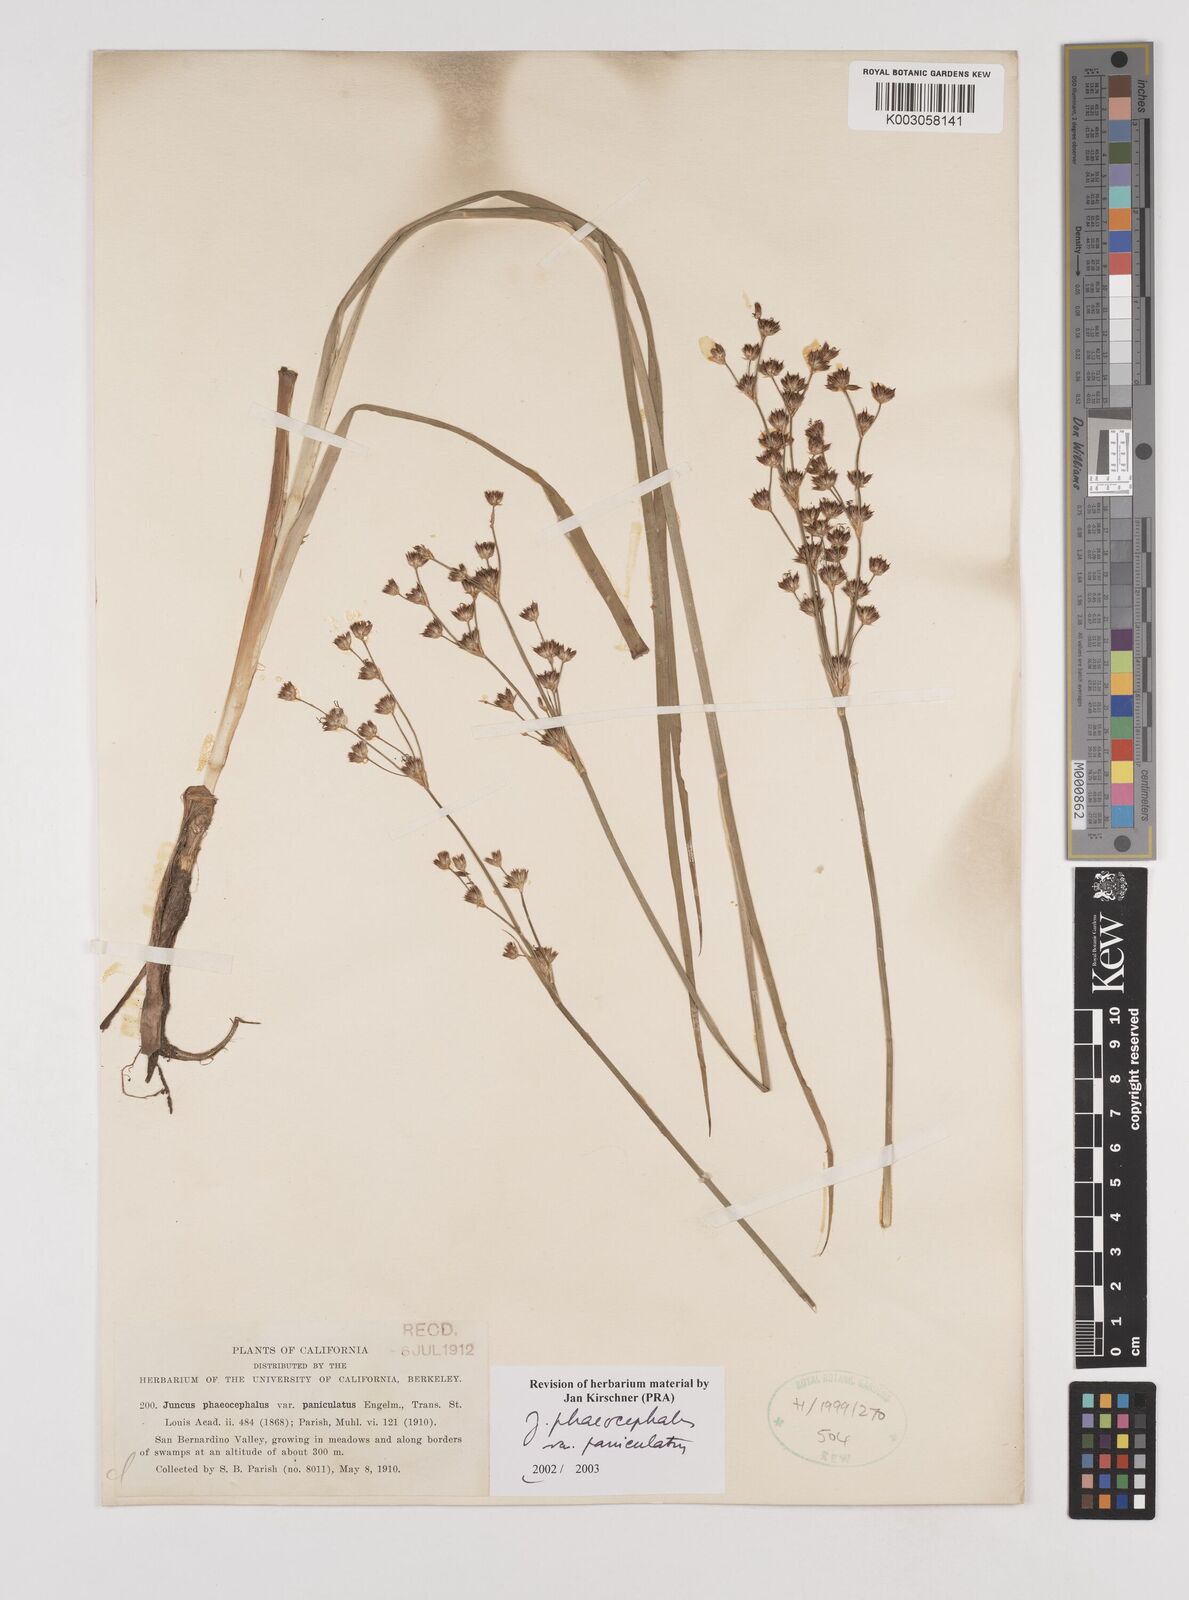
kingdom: Plantae
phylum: Tracheophyta
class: Liliopsida
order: Poales
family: Juncaceae
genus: Juncus
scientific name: Juncus phaeocephalus
